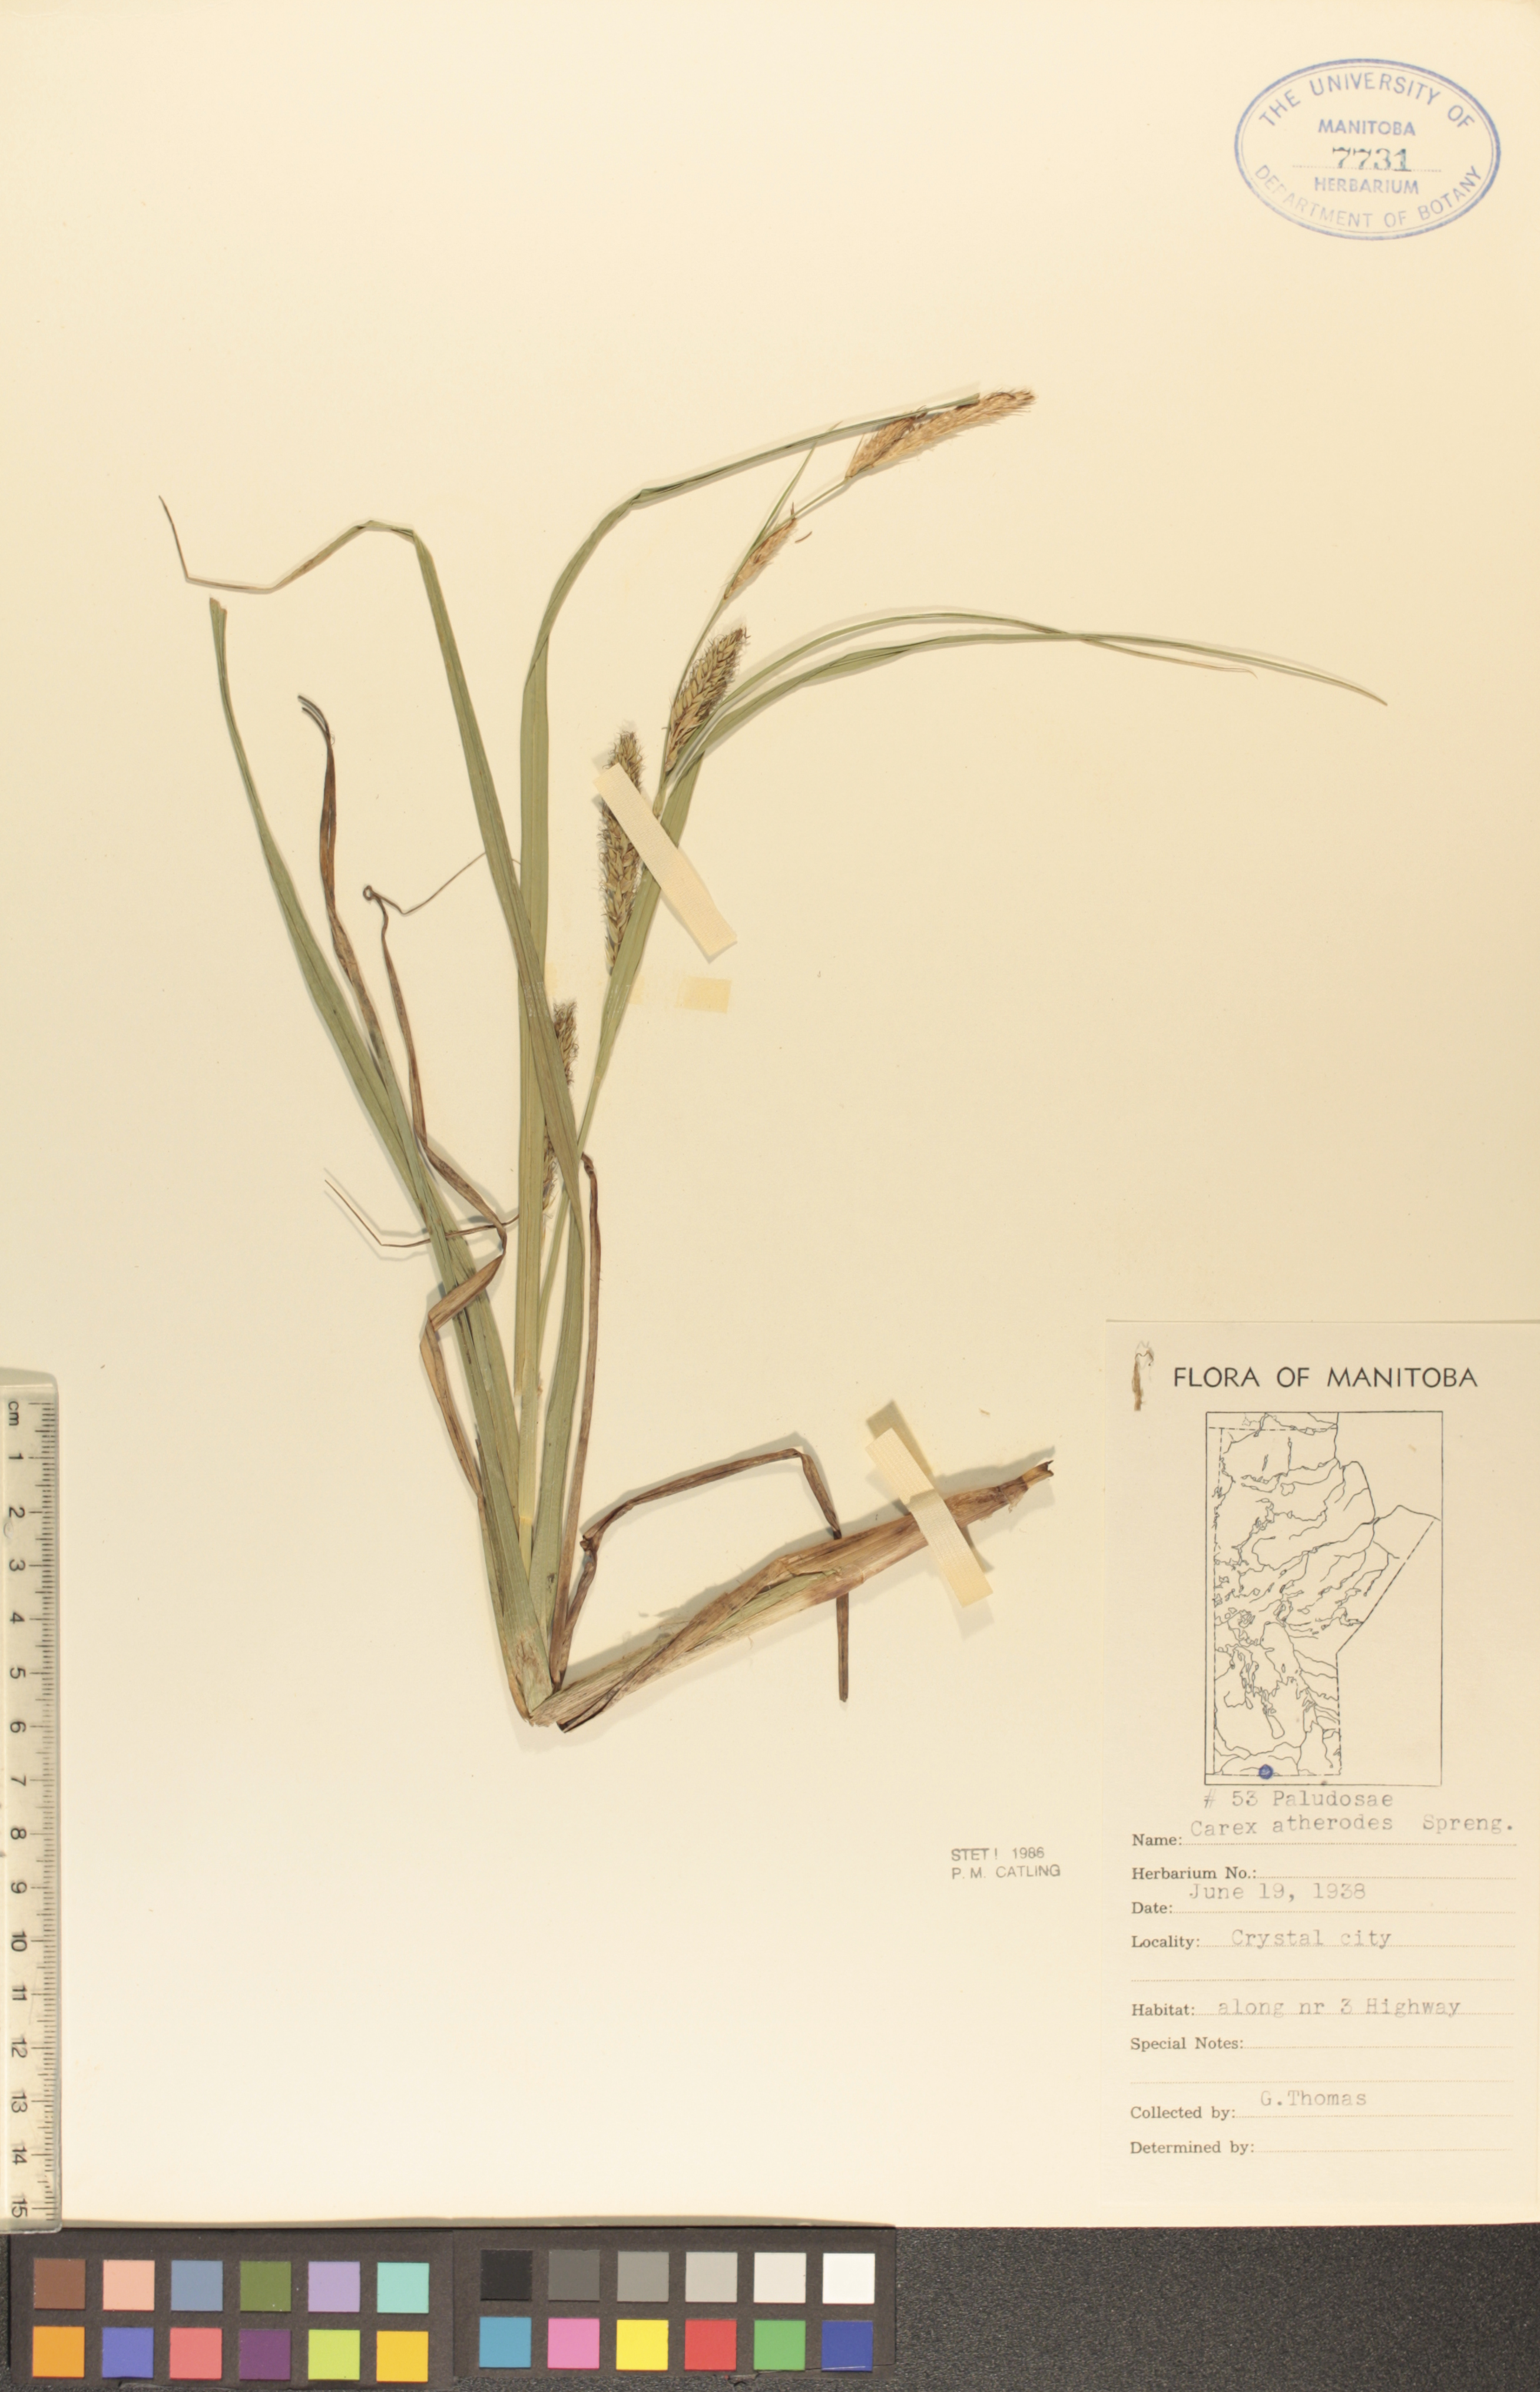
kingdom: Plantae
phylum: Tracheophyta
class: Liliopsida
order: Poales
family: Cyperaceae
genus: Carex
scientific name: Carex atherodes
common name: Wheat sedge
